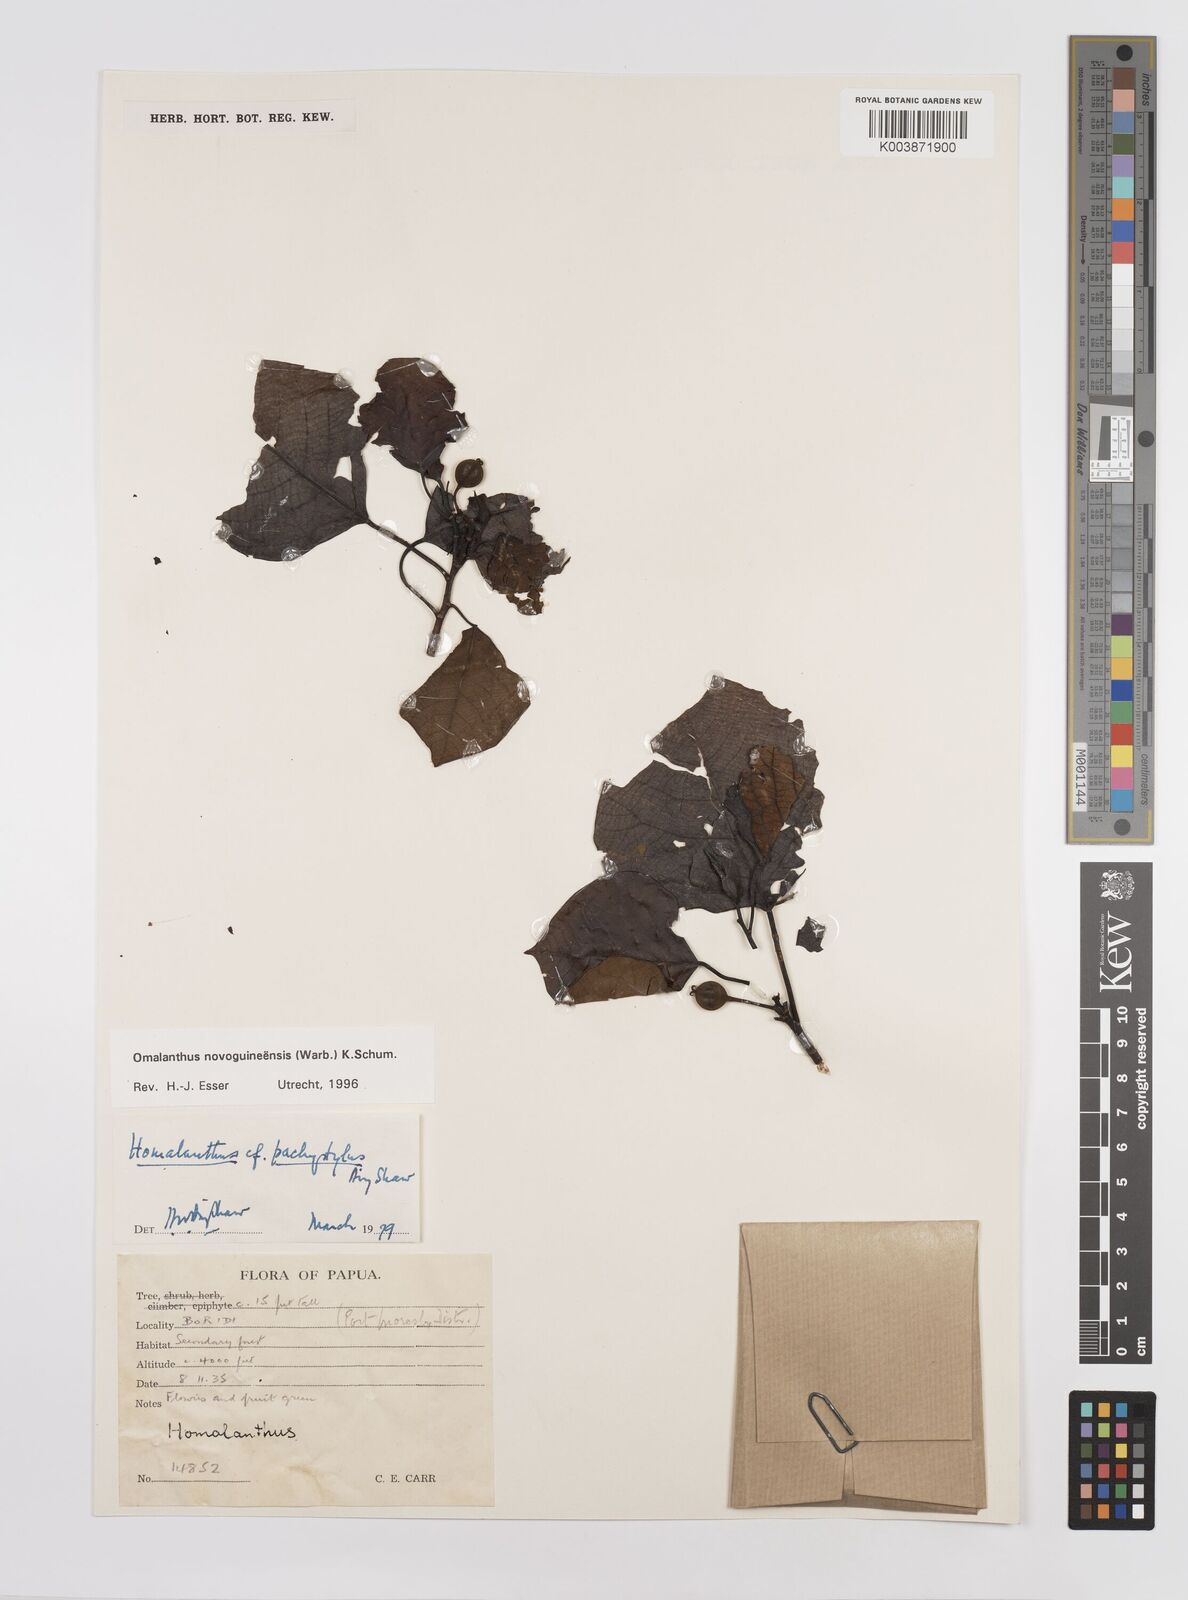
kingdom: Plantae
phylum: Tracheophyta
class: Magnoliopsida
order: Malpighiales
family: Euphorbiaceae
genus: Homalanthus
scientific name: Homalanthus novoguineensis
